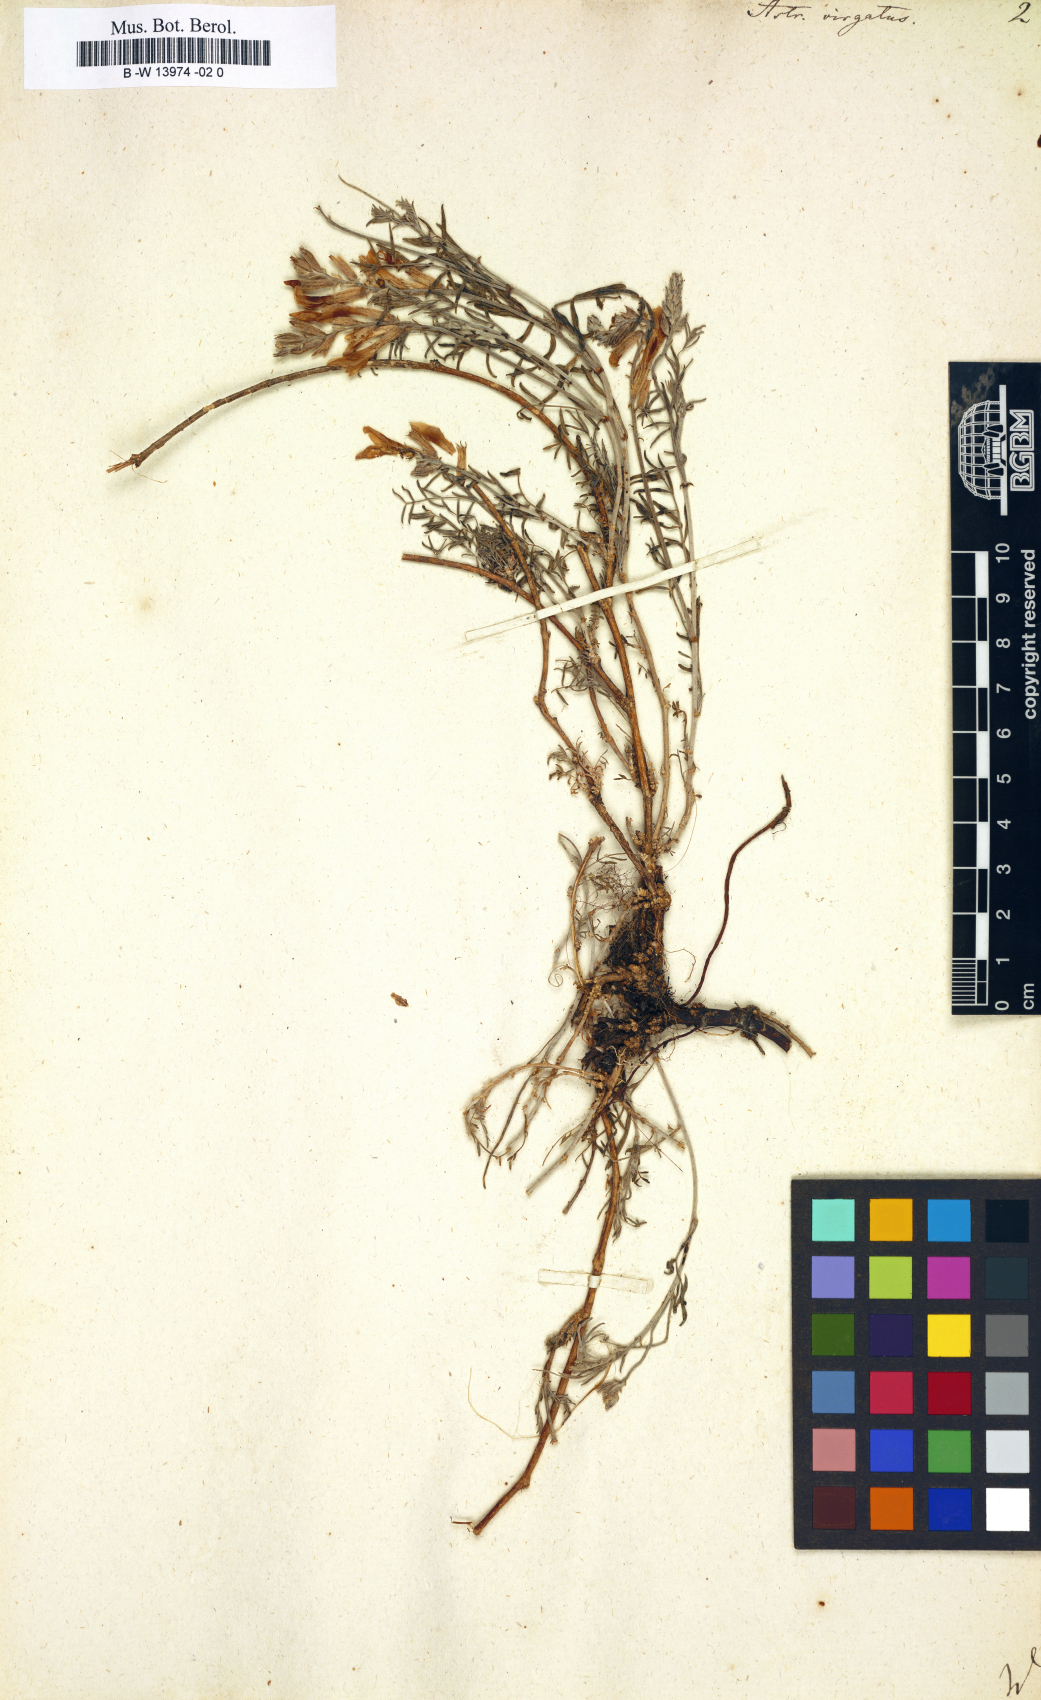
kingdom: Plantae
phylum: Tracheophyta
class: Magnoliopsida
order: Fabales
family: Fabaceae
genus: Astragalus
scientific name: Astragalus
